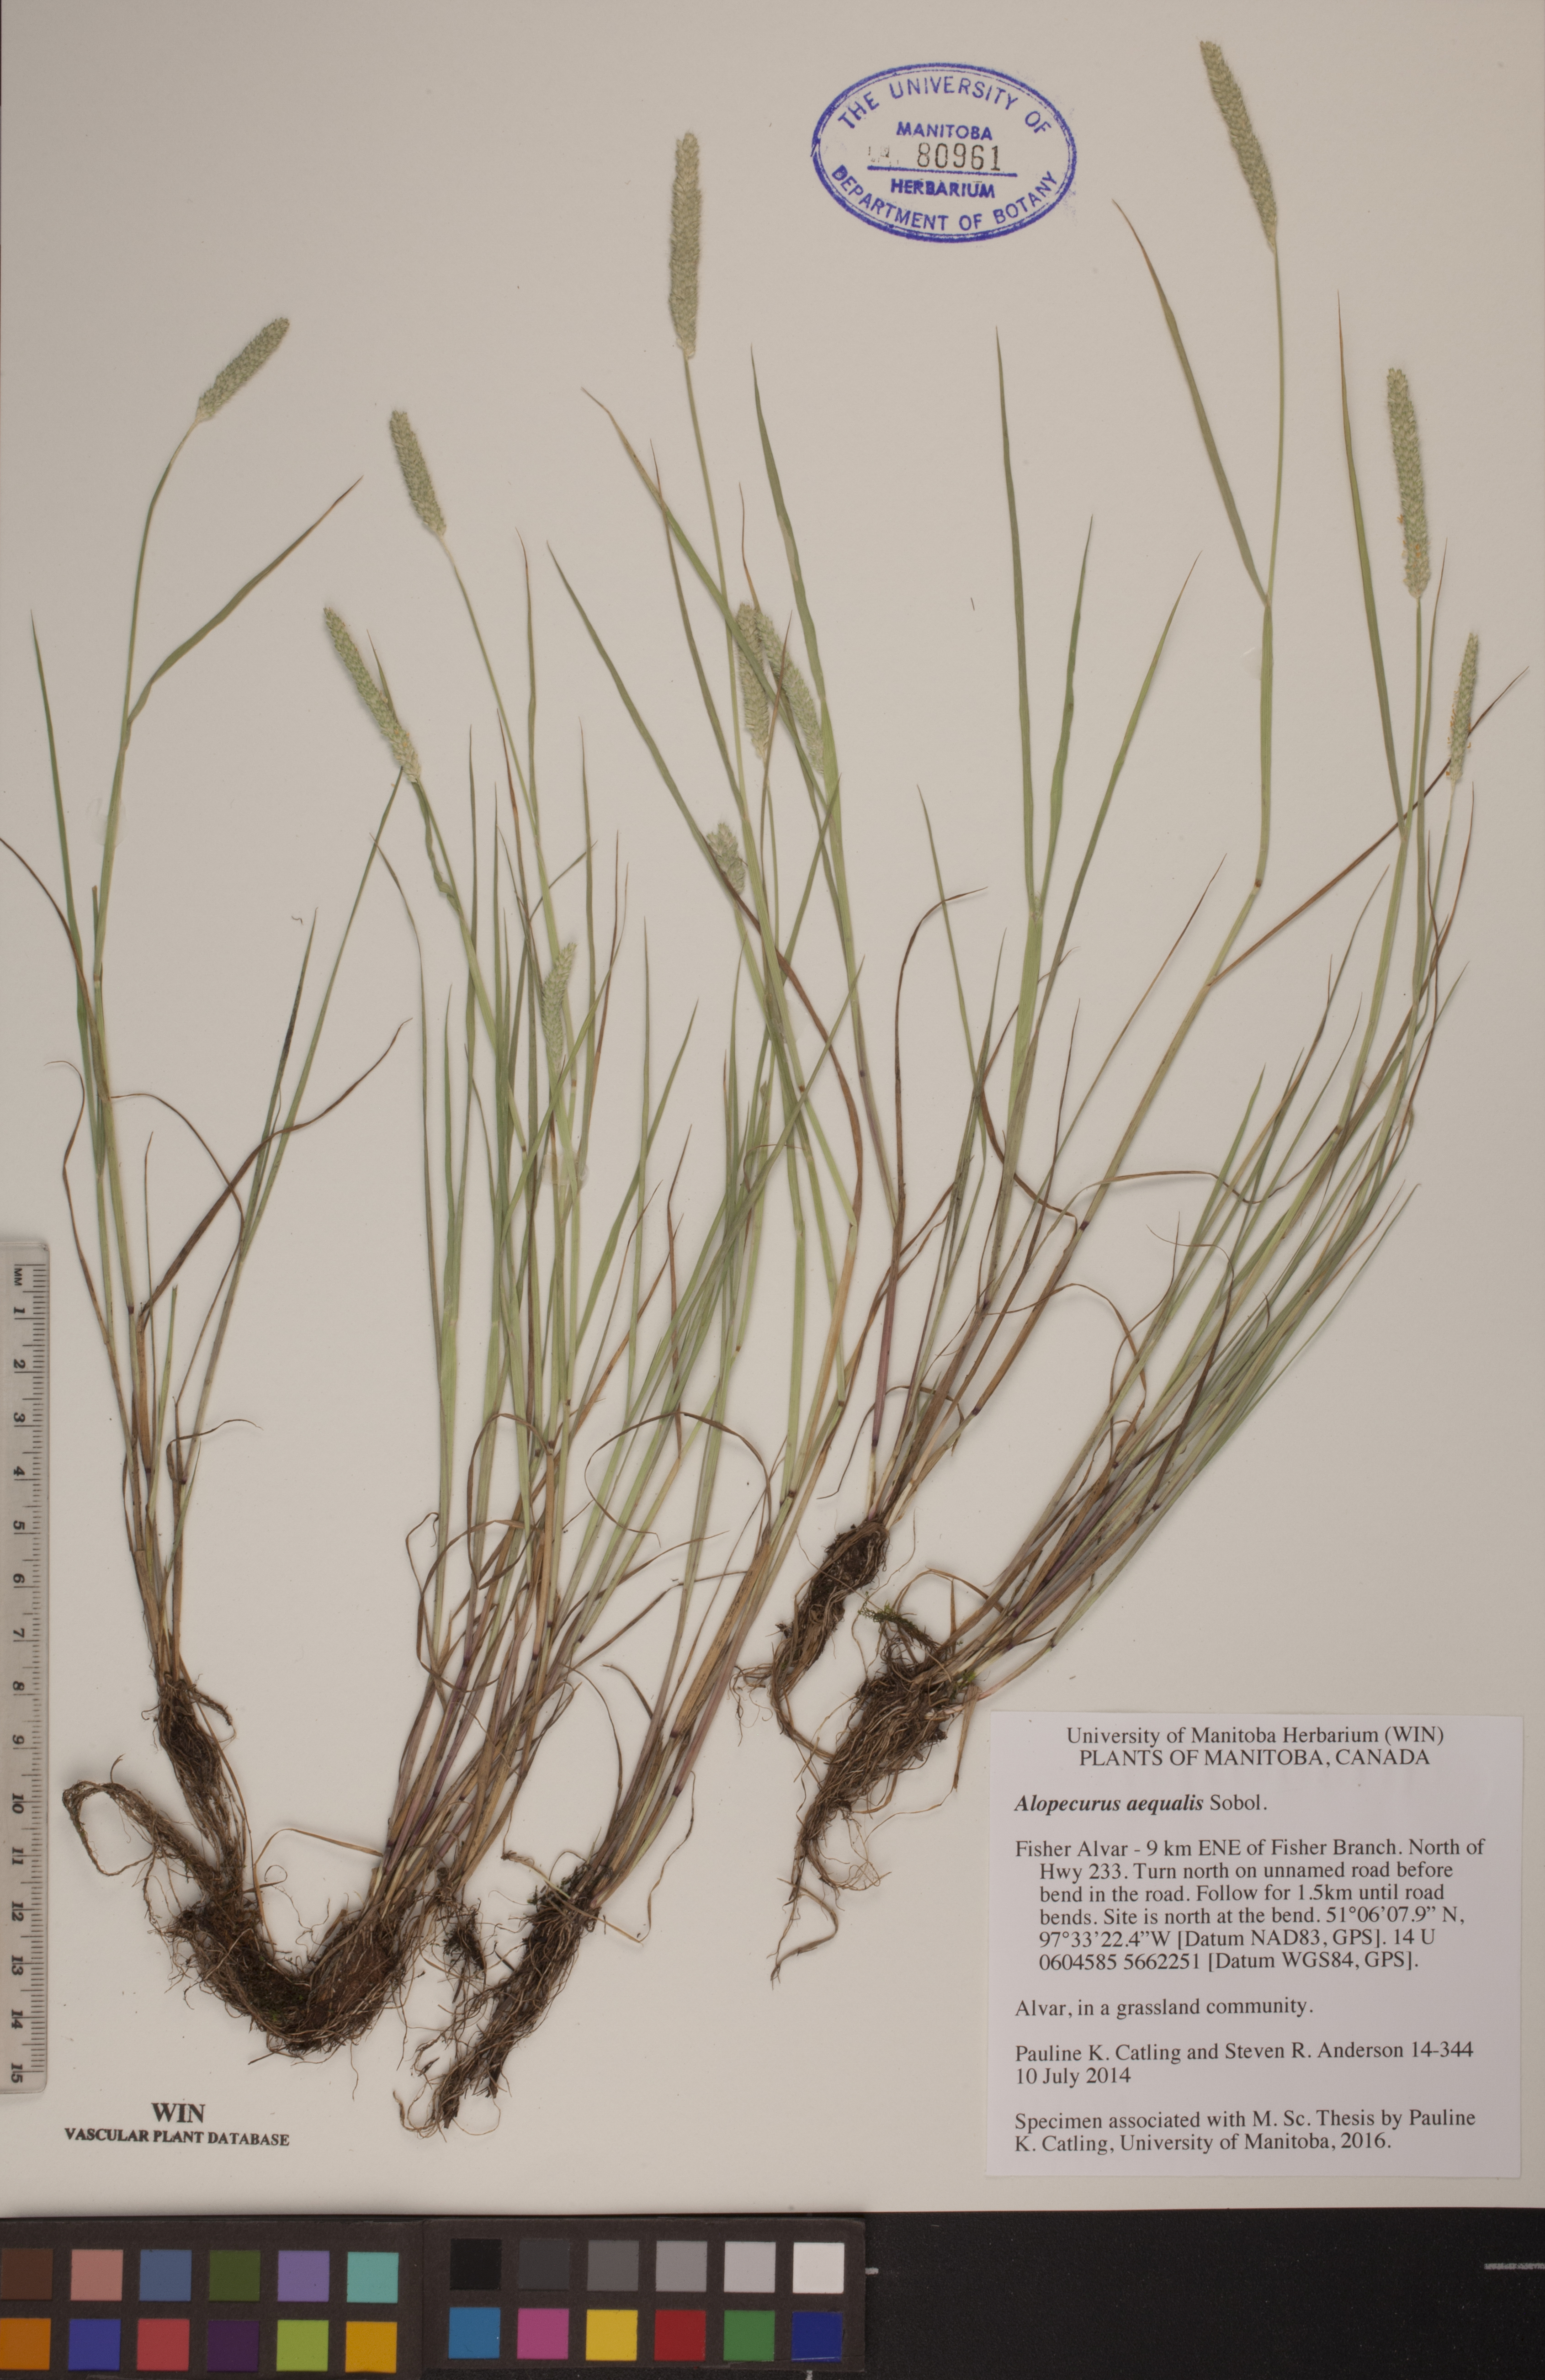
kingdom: Plantae
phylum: Tracheophyta
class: Liliopsida
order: Poales
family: Poaceae
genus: Alopecurus
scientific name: Alopecurus aequalis
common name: Orange foxtail
